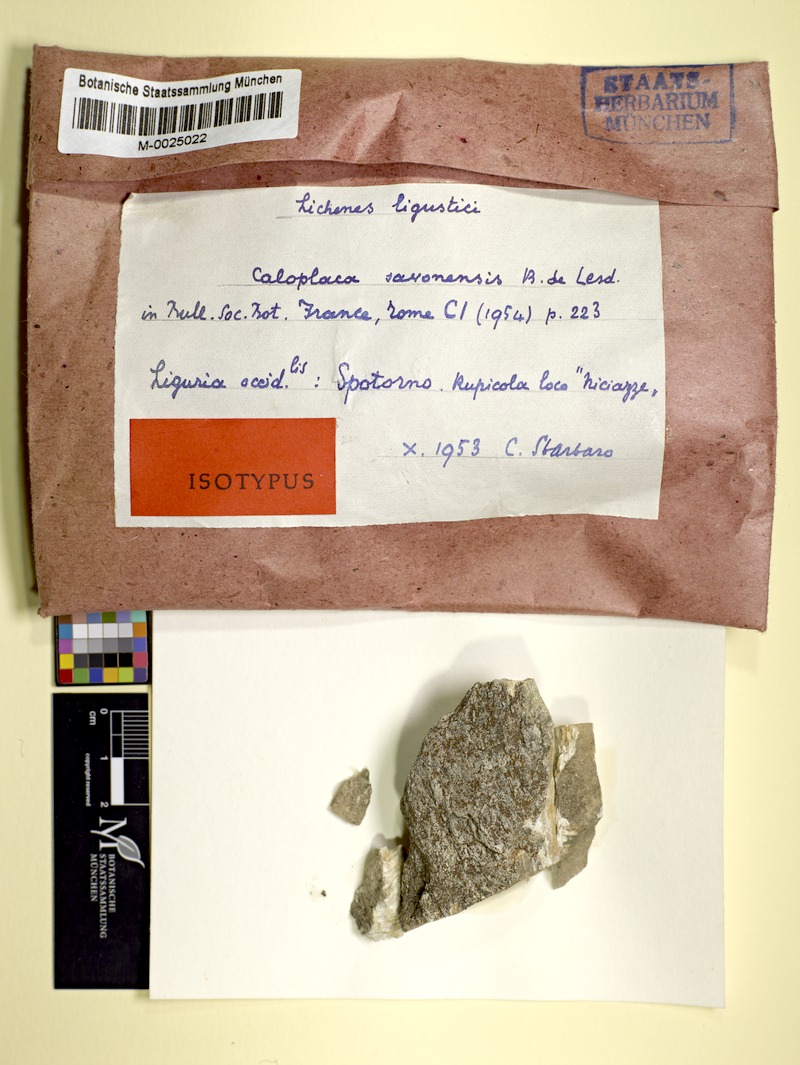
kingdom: Fungi
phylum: Ascomycota
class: Lecanoromycetes
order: Teloschistales
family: Teloschistaceae
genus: Caloplaca
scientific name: Caloplaca spotornonis
